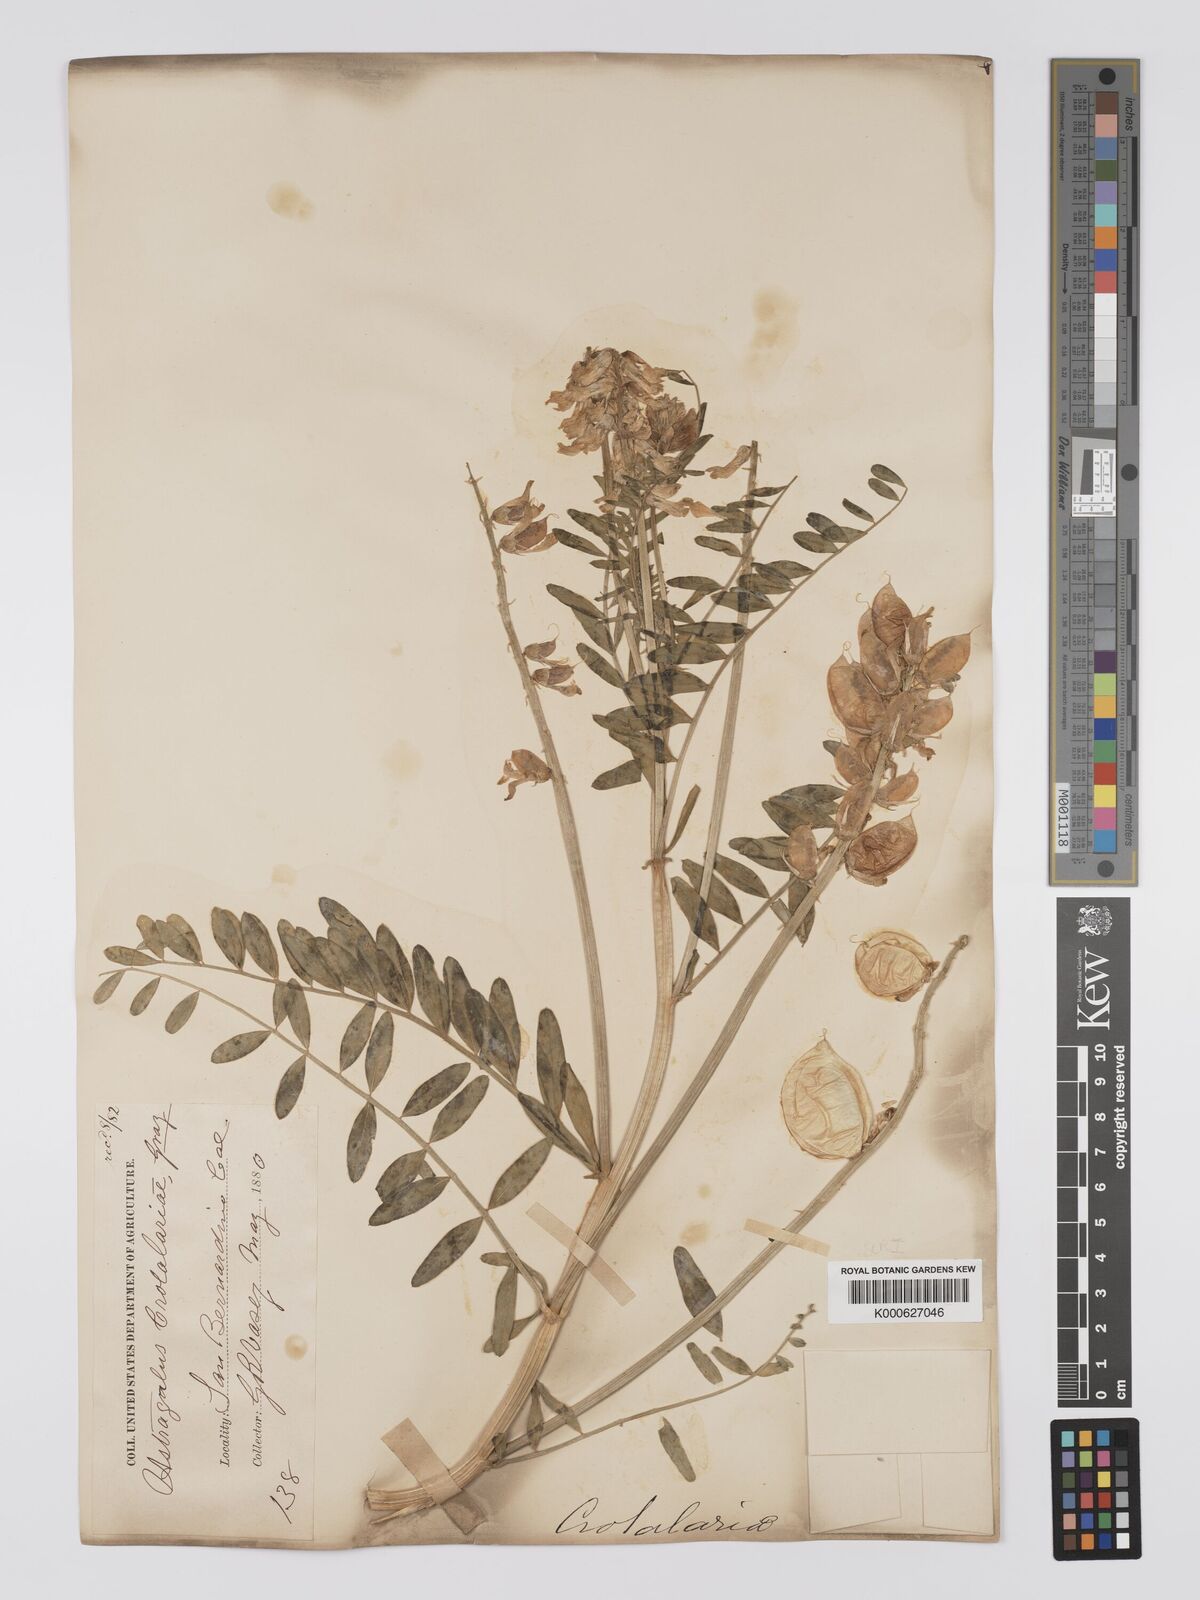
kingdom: Plantae
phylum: Tracheophyta
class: Magnoliopsida
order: Fabales
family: Fabaceae
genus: Astragalus
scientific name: Astragalus crotalariae
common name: Salton milkvetch
